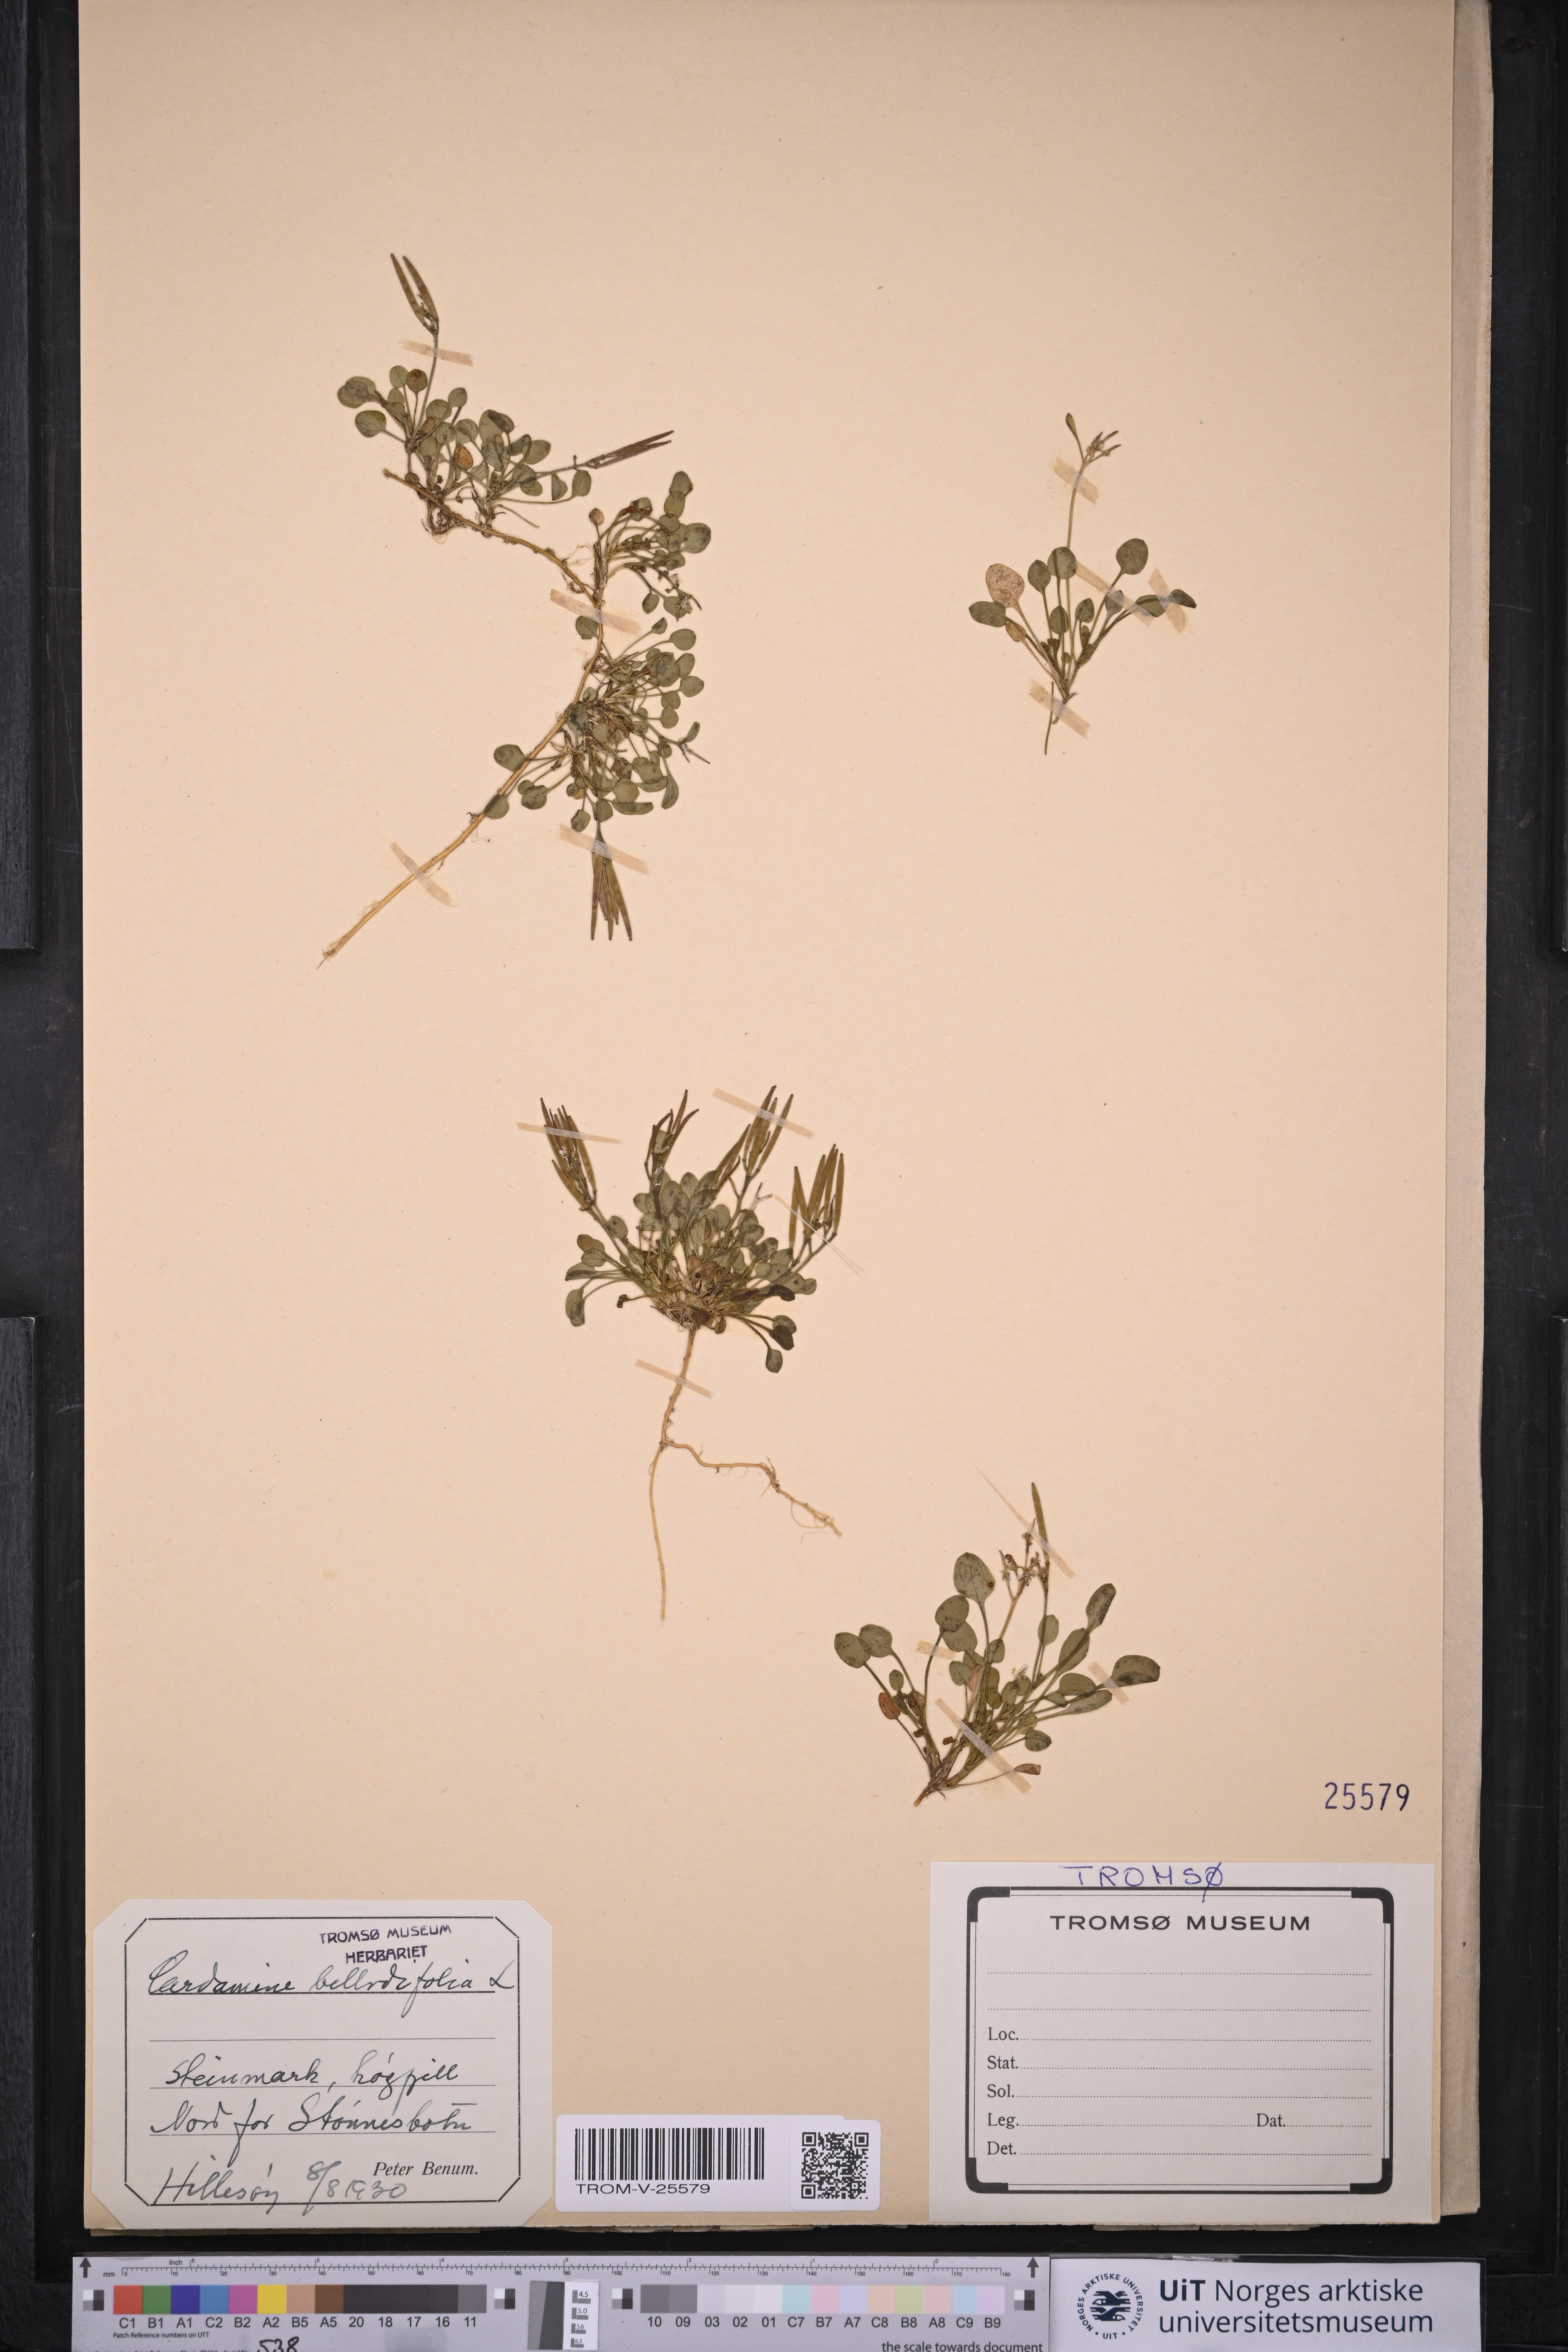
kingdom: Plantae
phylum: Tracheophyta
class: Magnoliopsida
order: Brassicales
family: Brassicaceae
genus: Cardamine
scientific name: Cardamine bellidifolia
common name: Alpine bittercress
